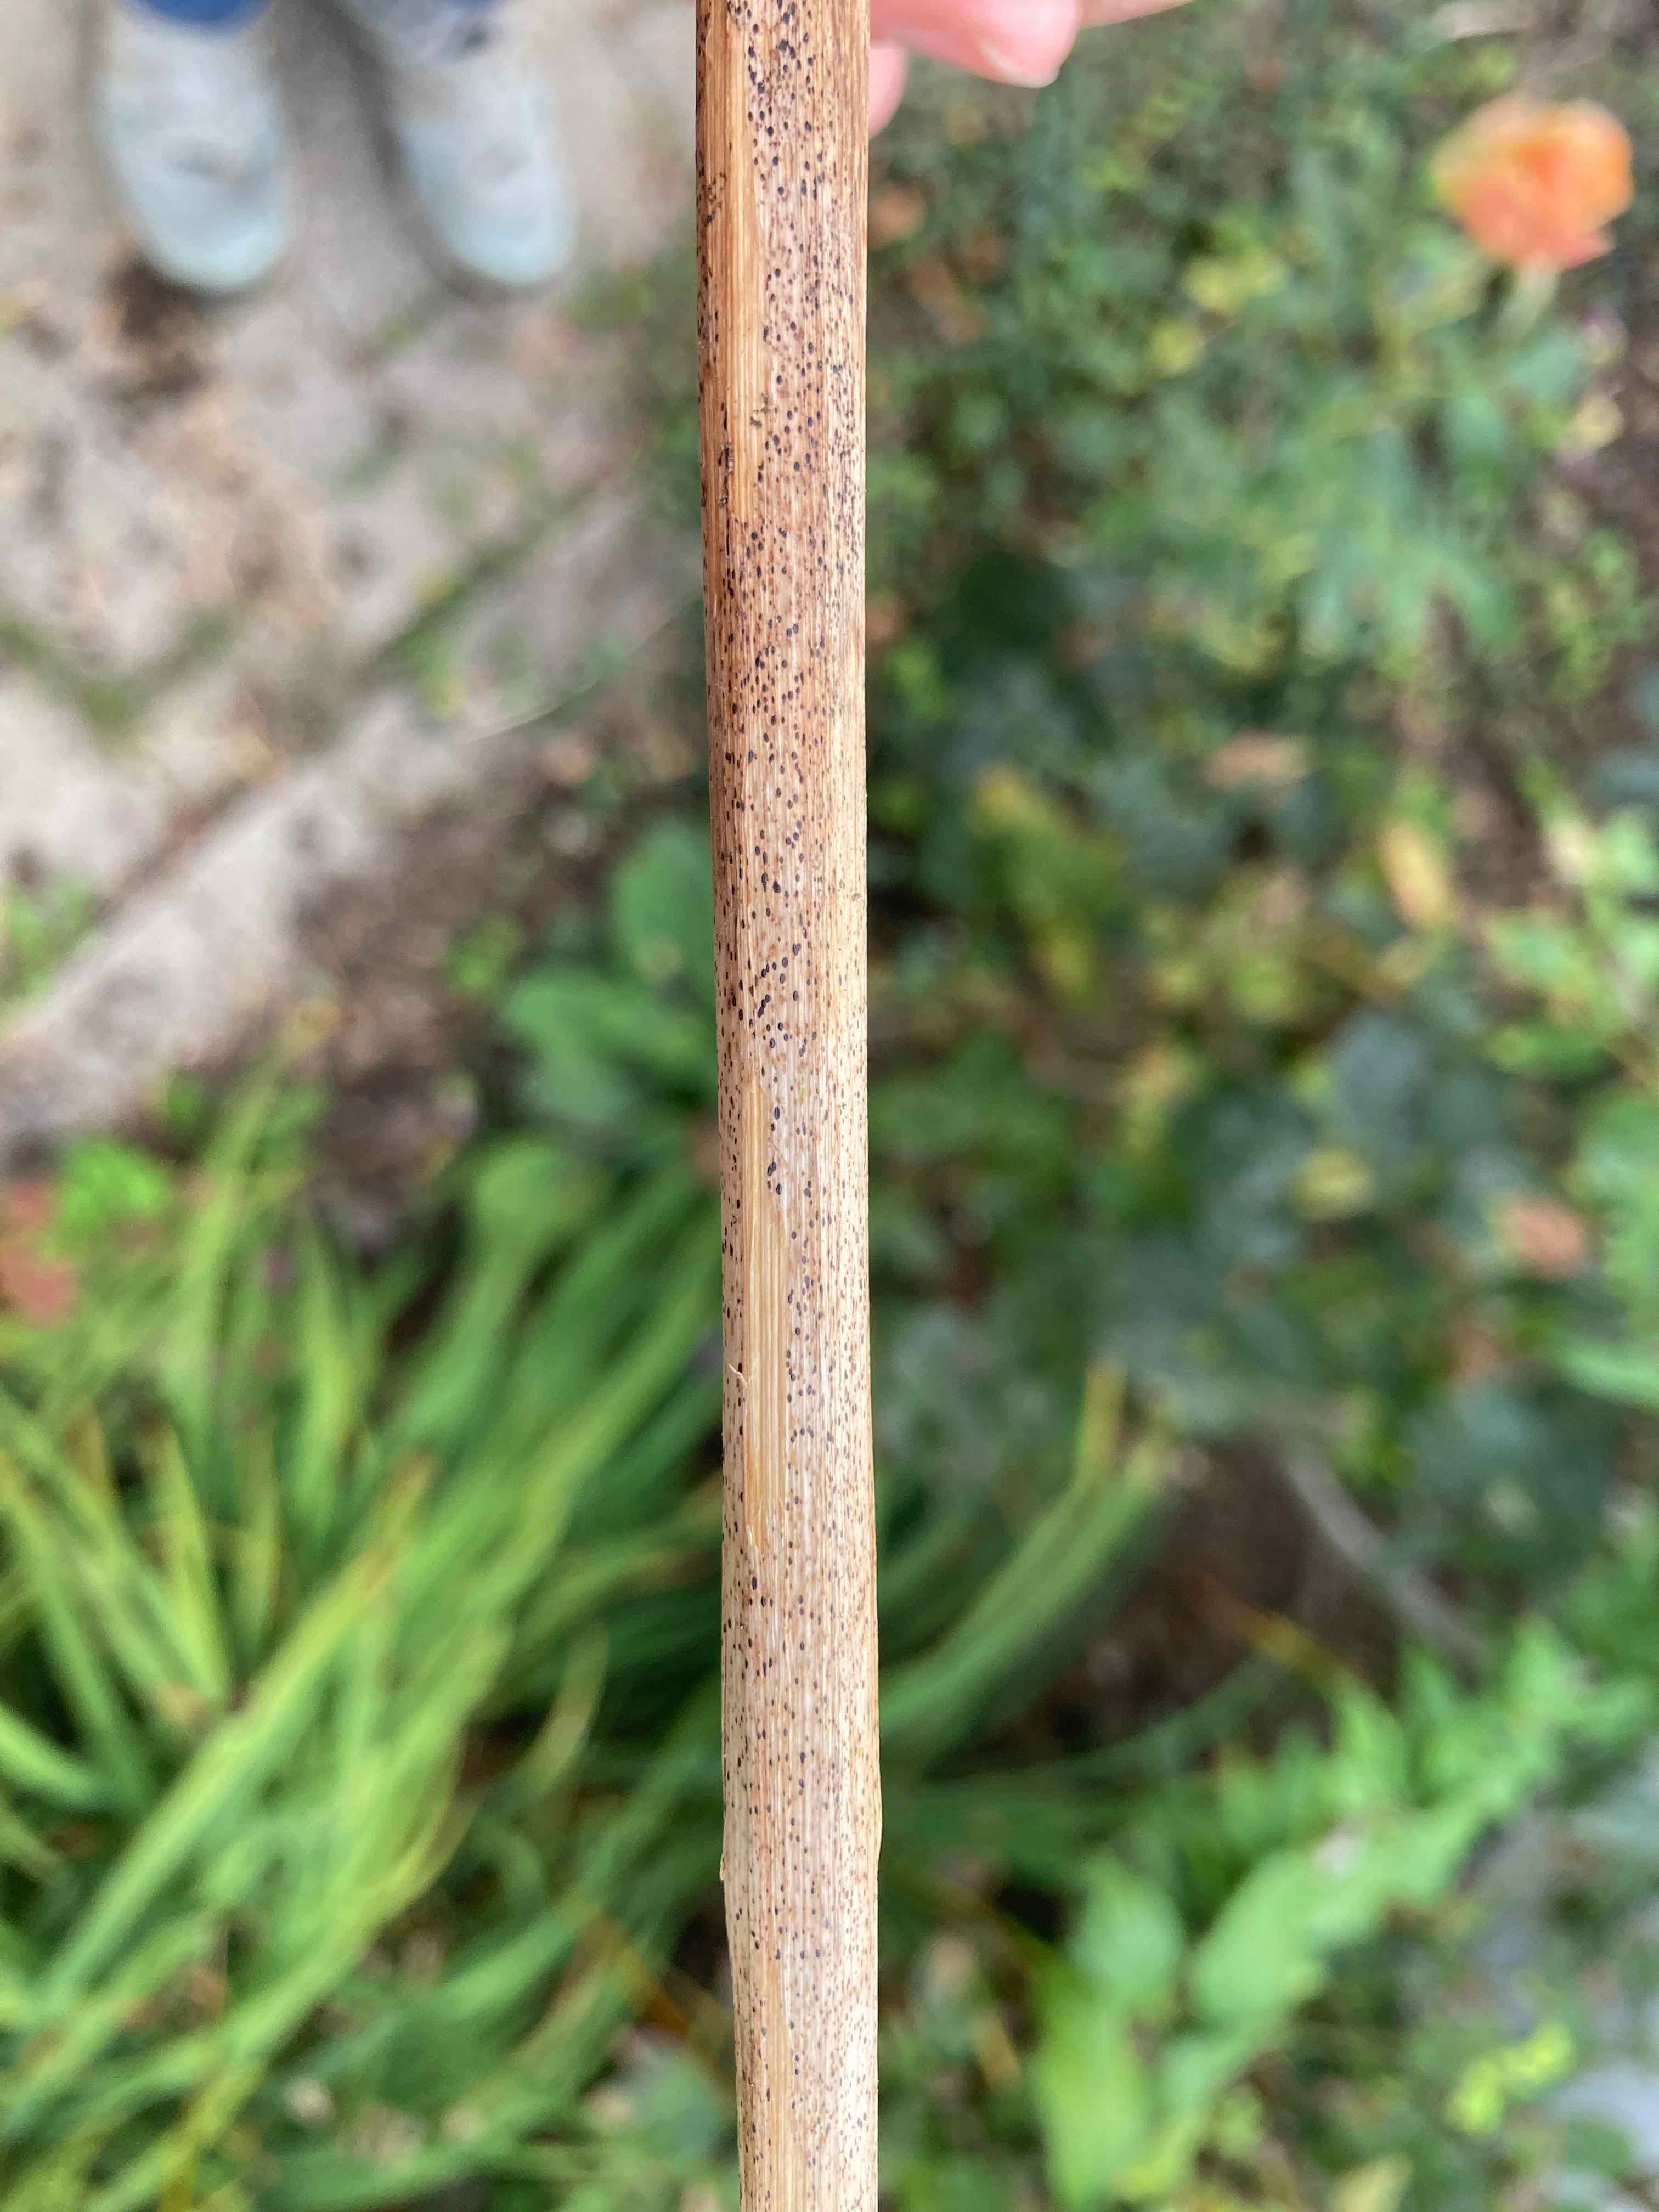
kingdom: Fungi
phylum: Ascomycota
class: Leotiomycetes
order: Rhytismatales
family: Rhytismataceae
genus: Lophodermium
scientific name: Lophodermium paeoniae
